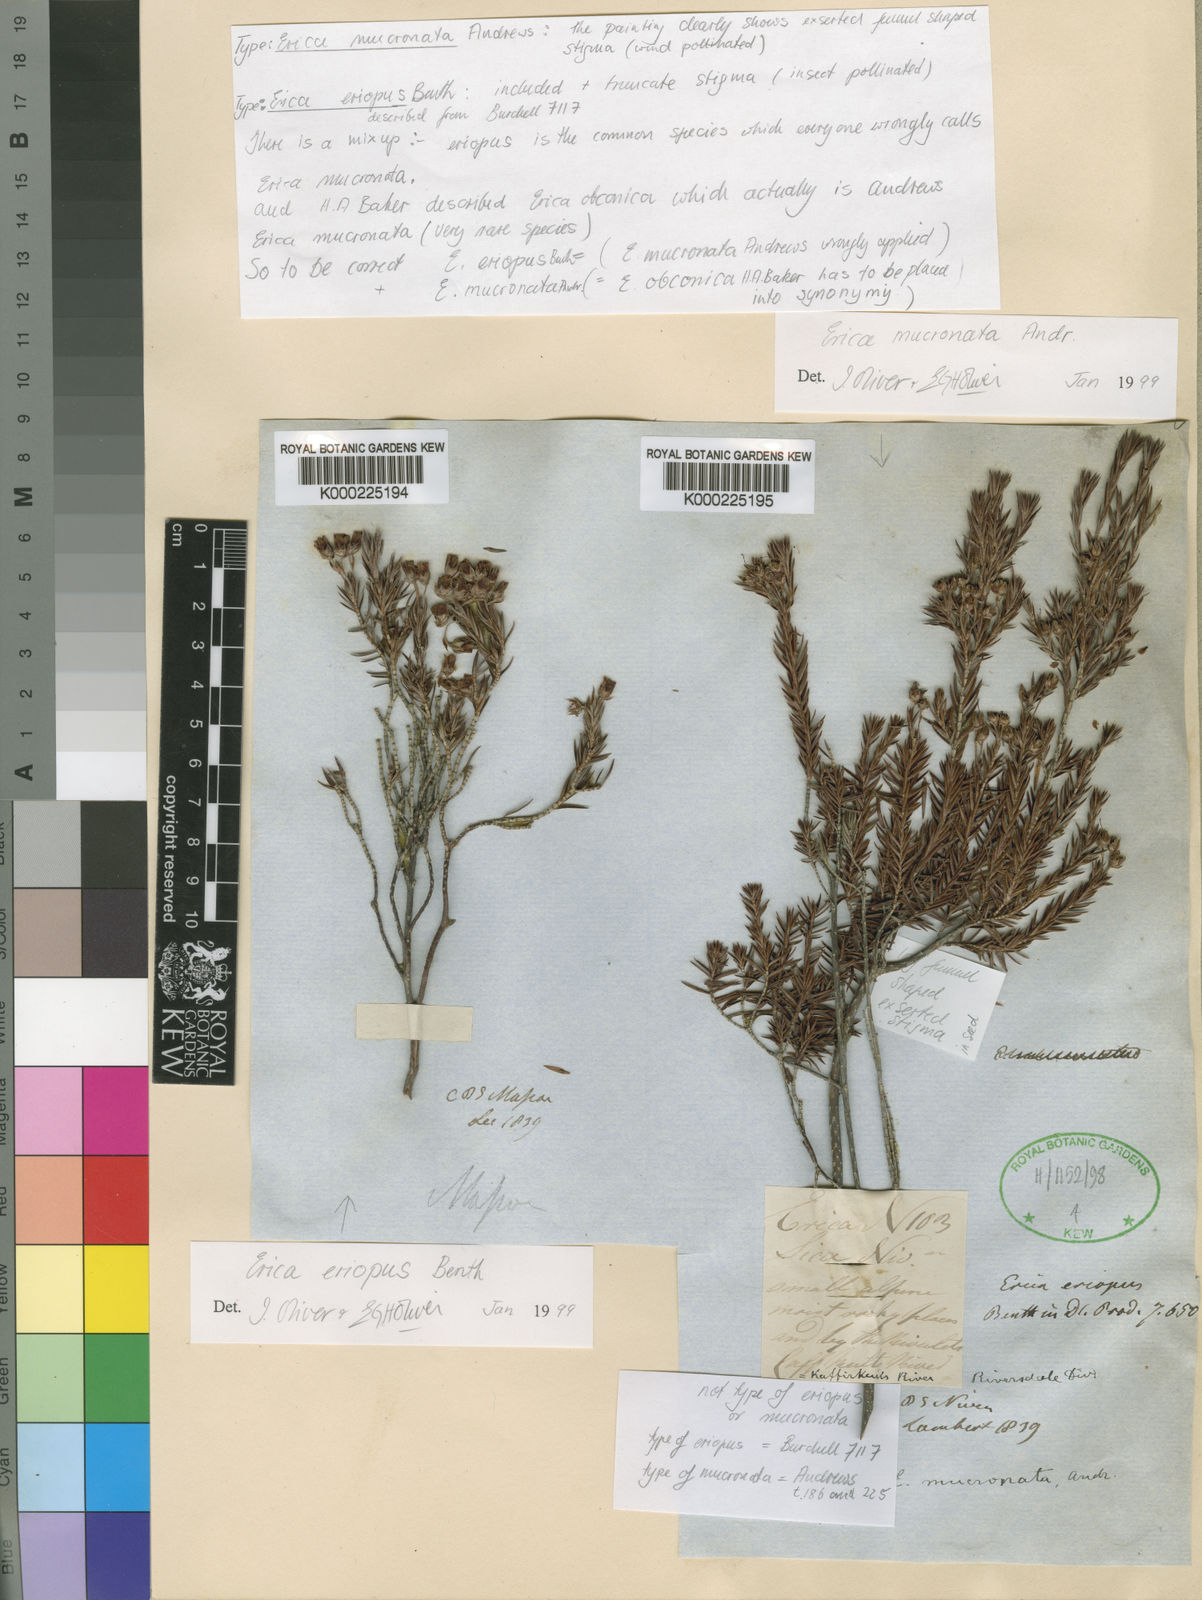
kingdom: Plantae
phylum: Tracheophyta
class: Magnoliopsida
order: Ericales
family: Ericaceae
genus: Erica
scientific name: Erica mucronata
